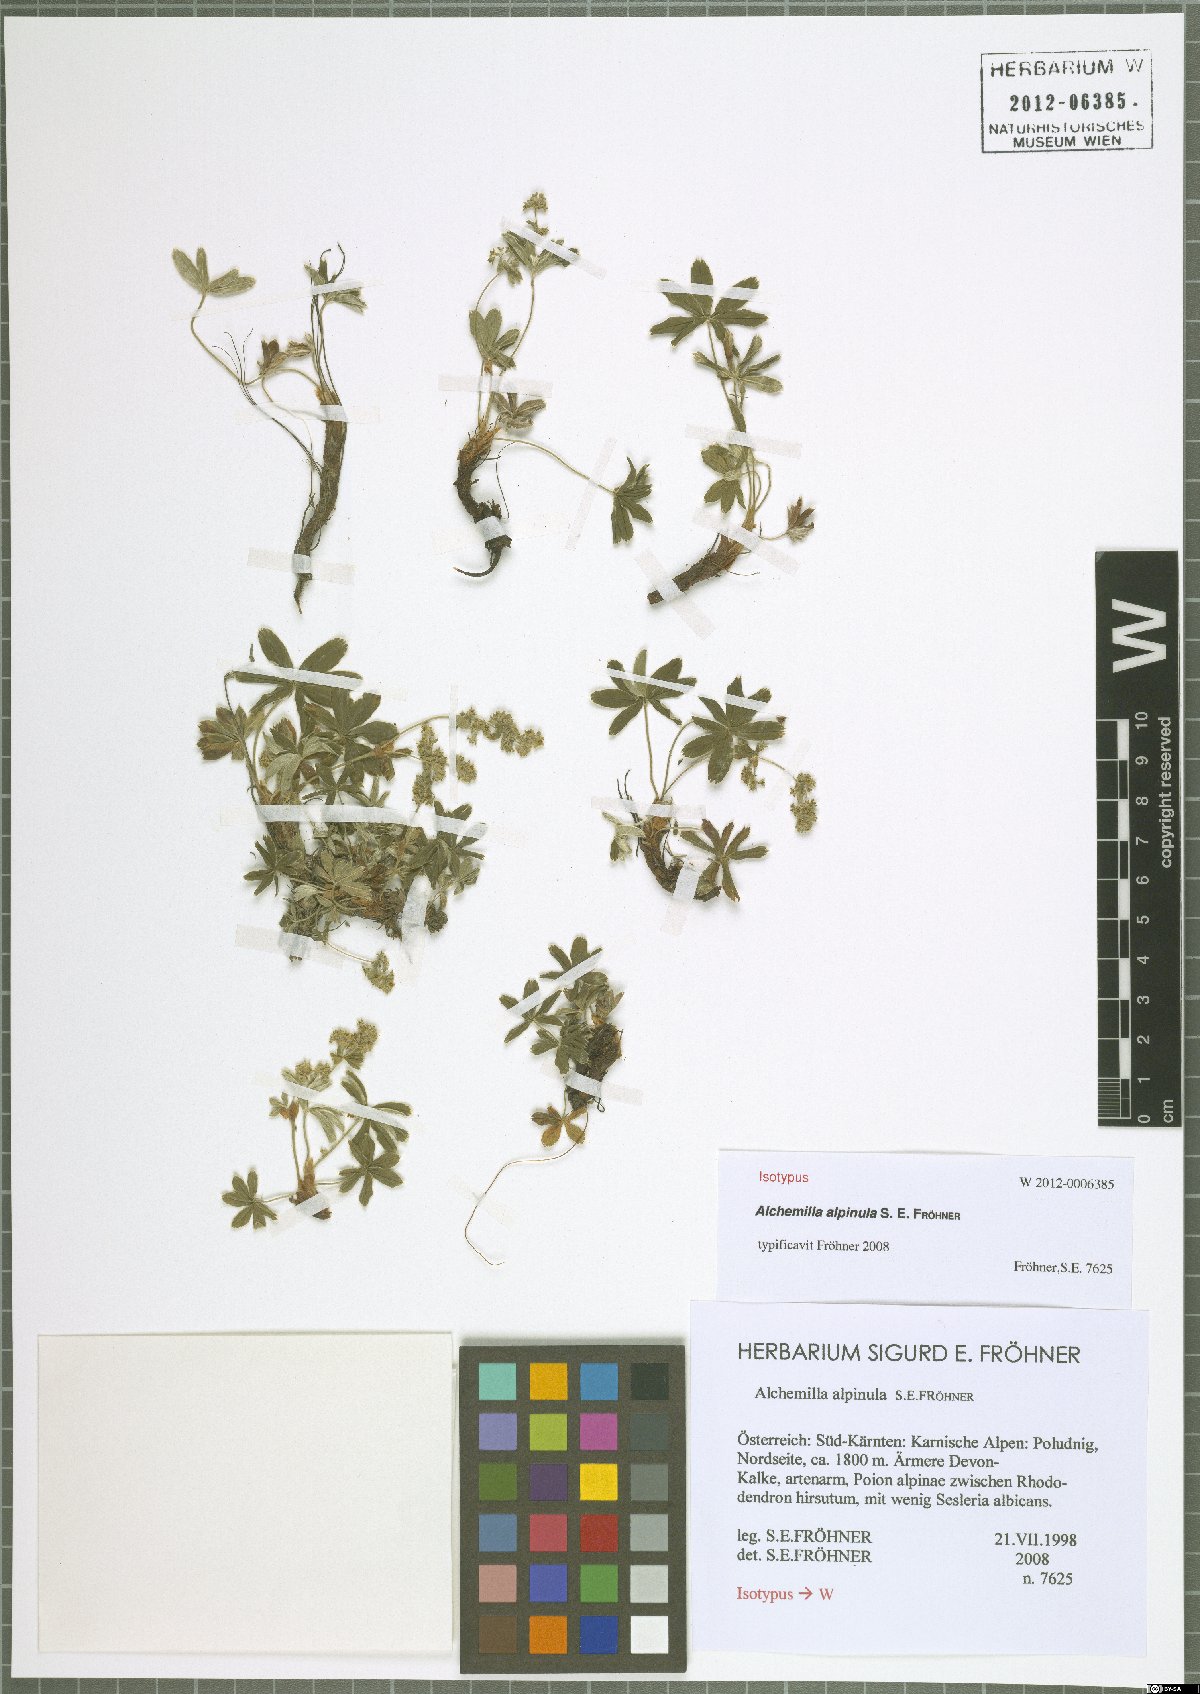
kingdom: Plantae
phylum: Tracheophyta
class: Magnoliopsida
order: Rosales
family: Rosaceae
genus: Alchemilla
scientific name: Alchemilla alpinula
